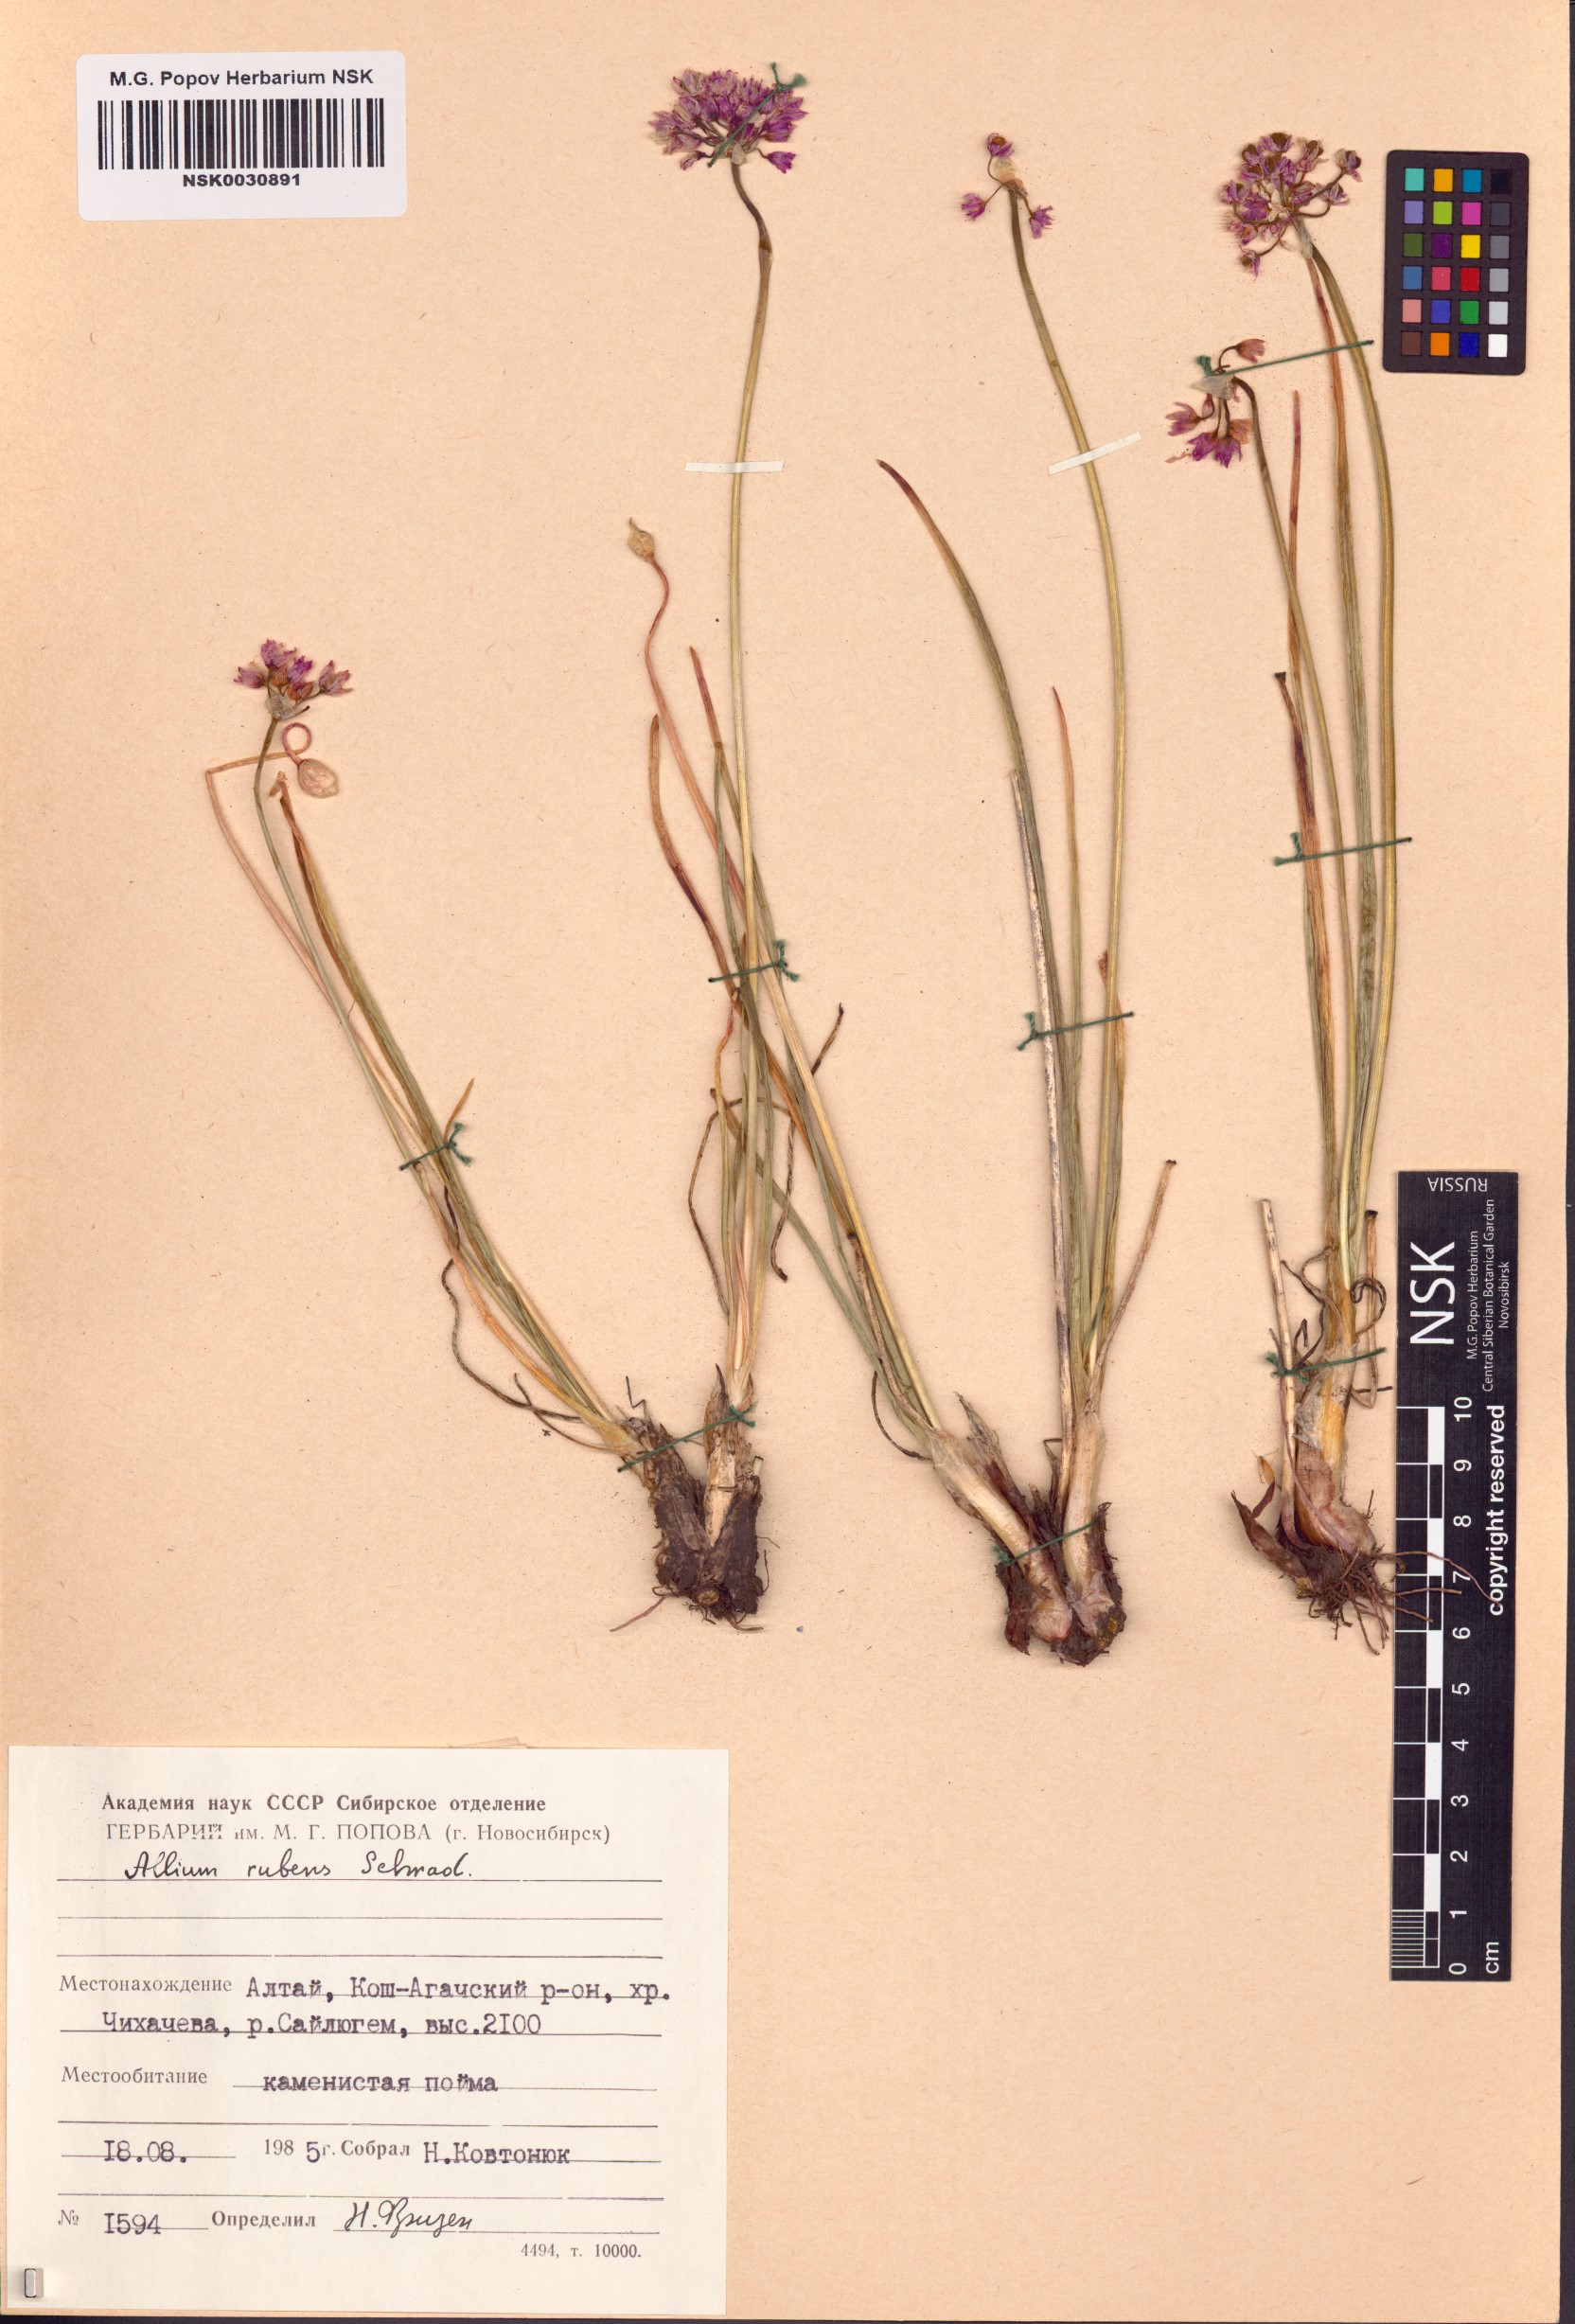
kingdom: Plantae
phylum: Tracheophyta
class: Liliopsida
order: Asparagales
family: Amaryllidaceae
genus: Allium
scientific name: Allium rubens
